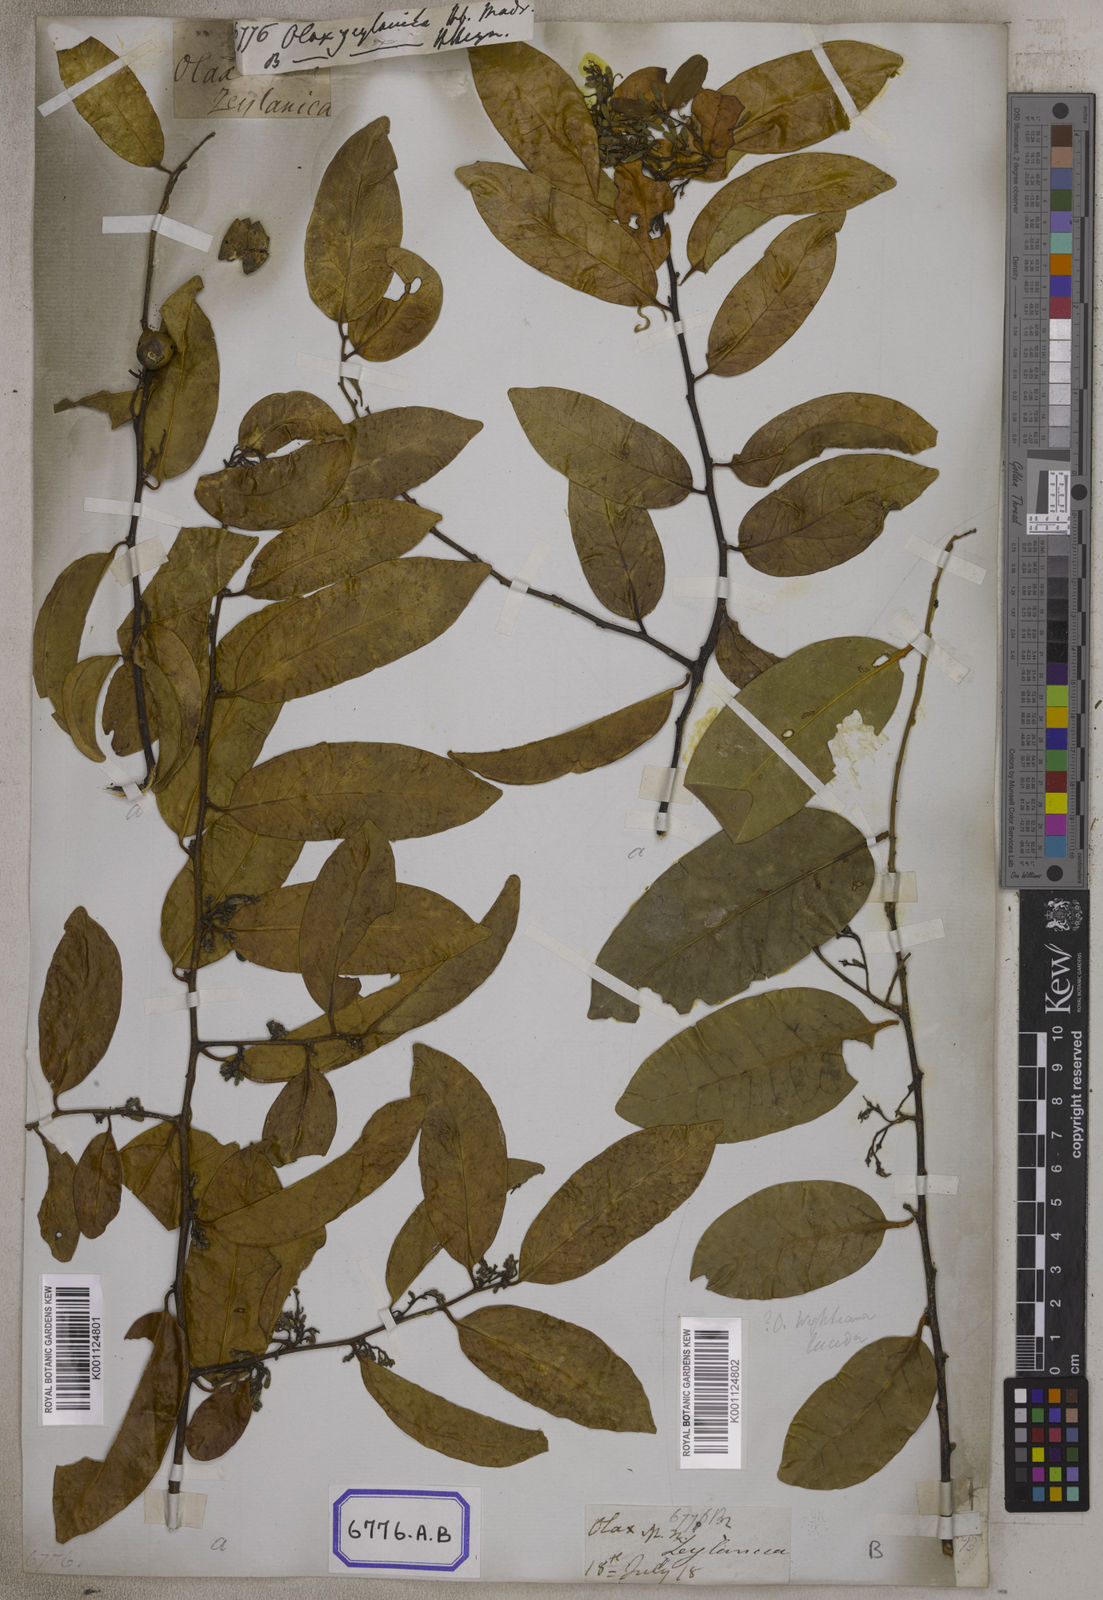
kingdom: Plantae
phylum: Tracheophyta
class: Magnoliopsida
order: Santalales
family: Olacaceae
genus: Olax
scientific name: Olax
